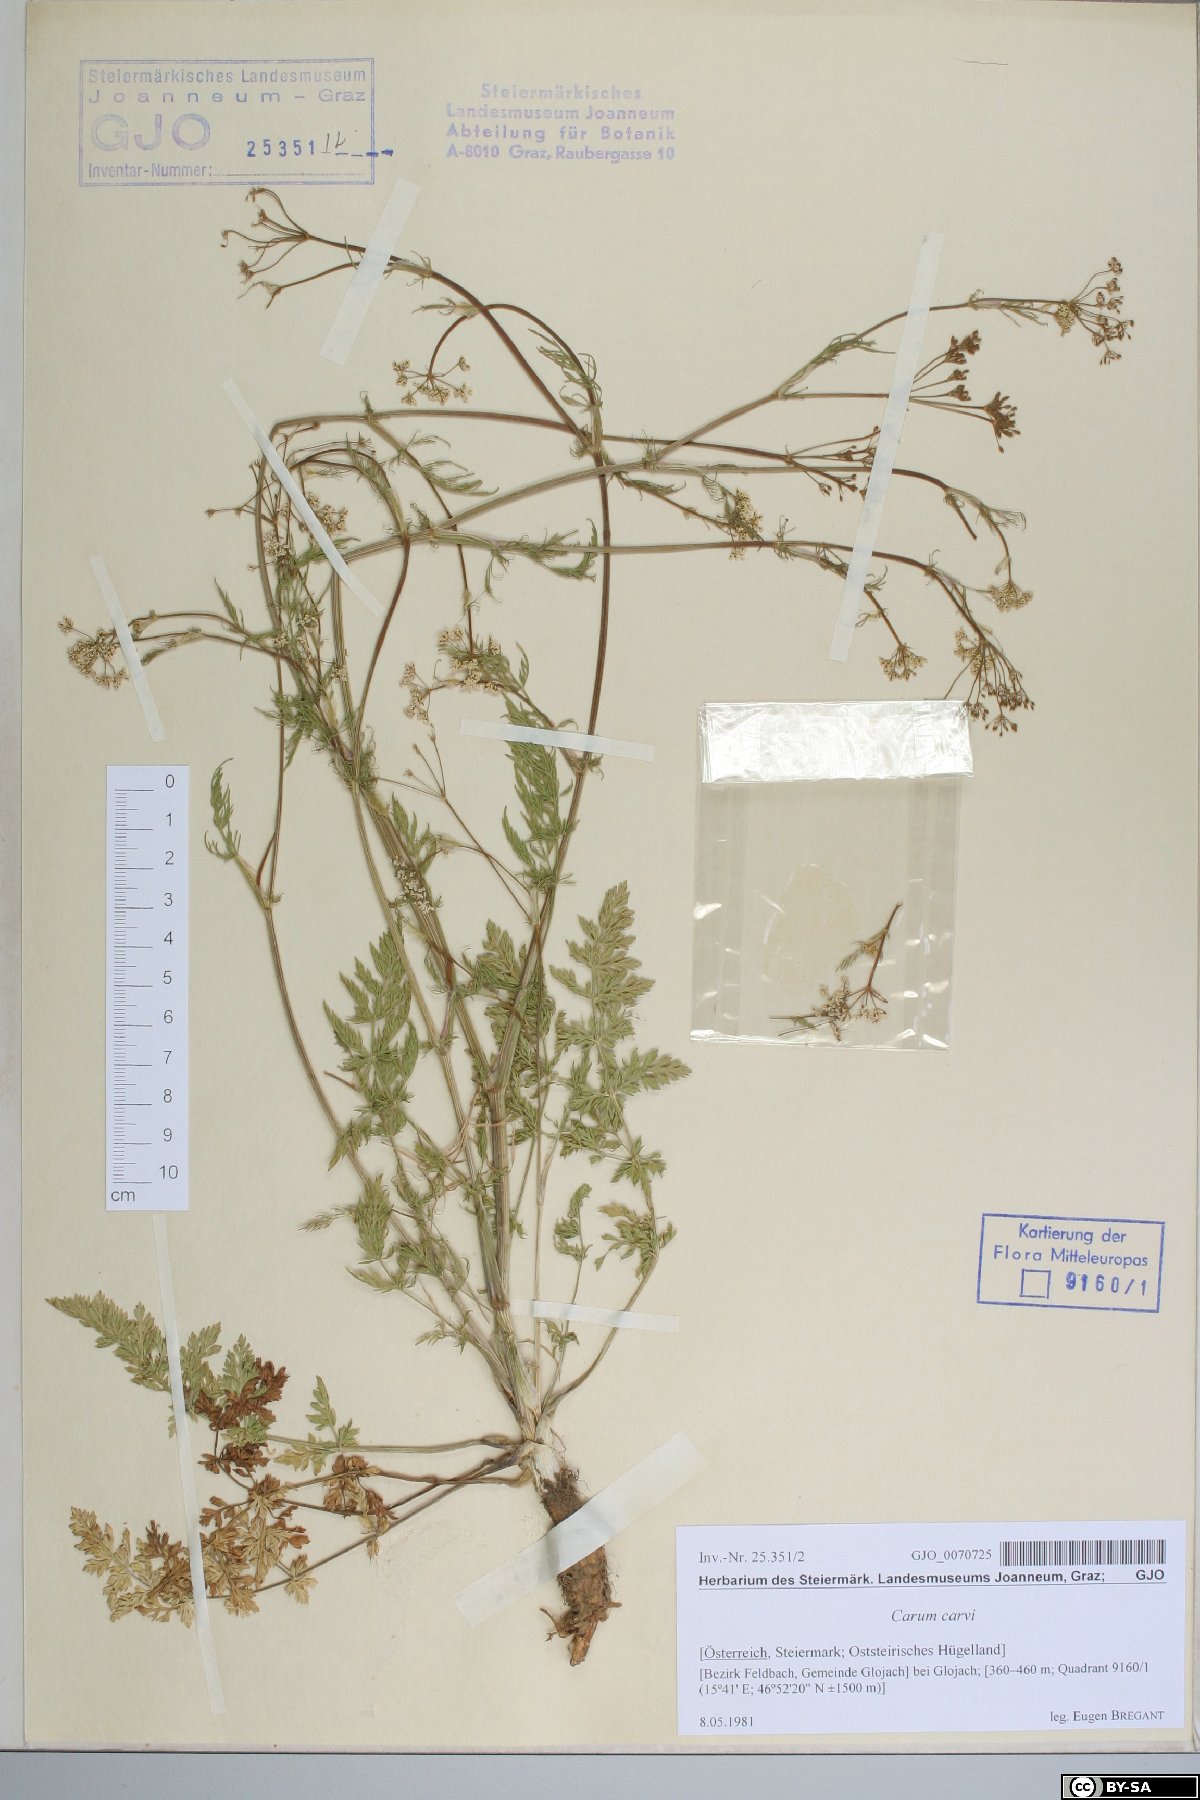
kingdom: Plantae
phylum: Tracheophyta
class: Magnoliopsida
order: Apiales
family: Apiaceae
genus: Carum
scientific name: Carum carvi
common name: Caraway
